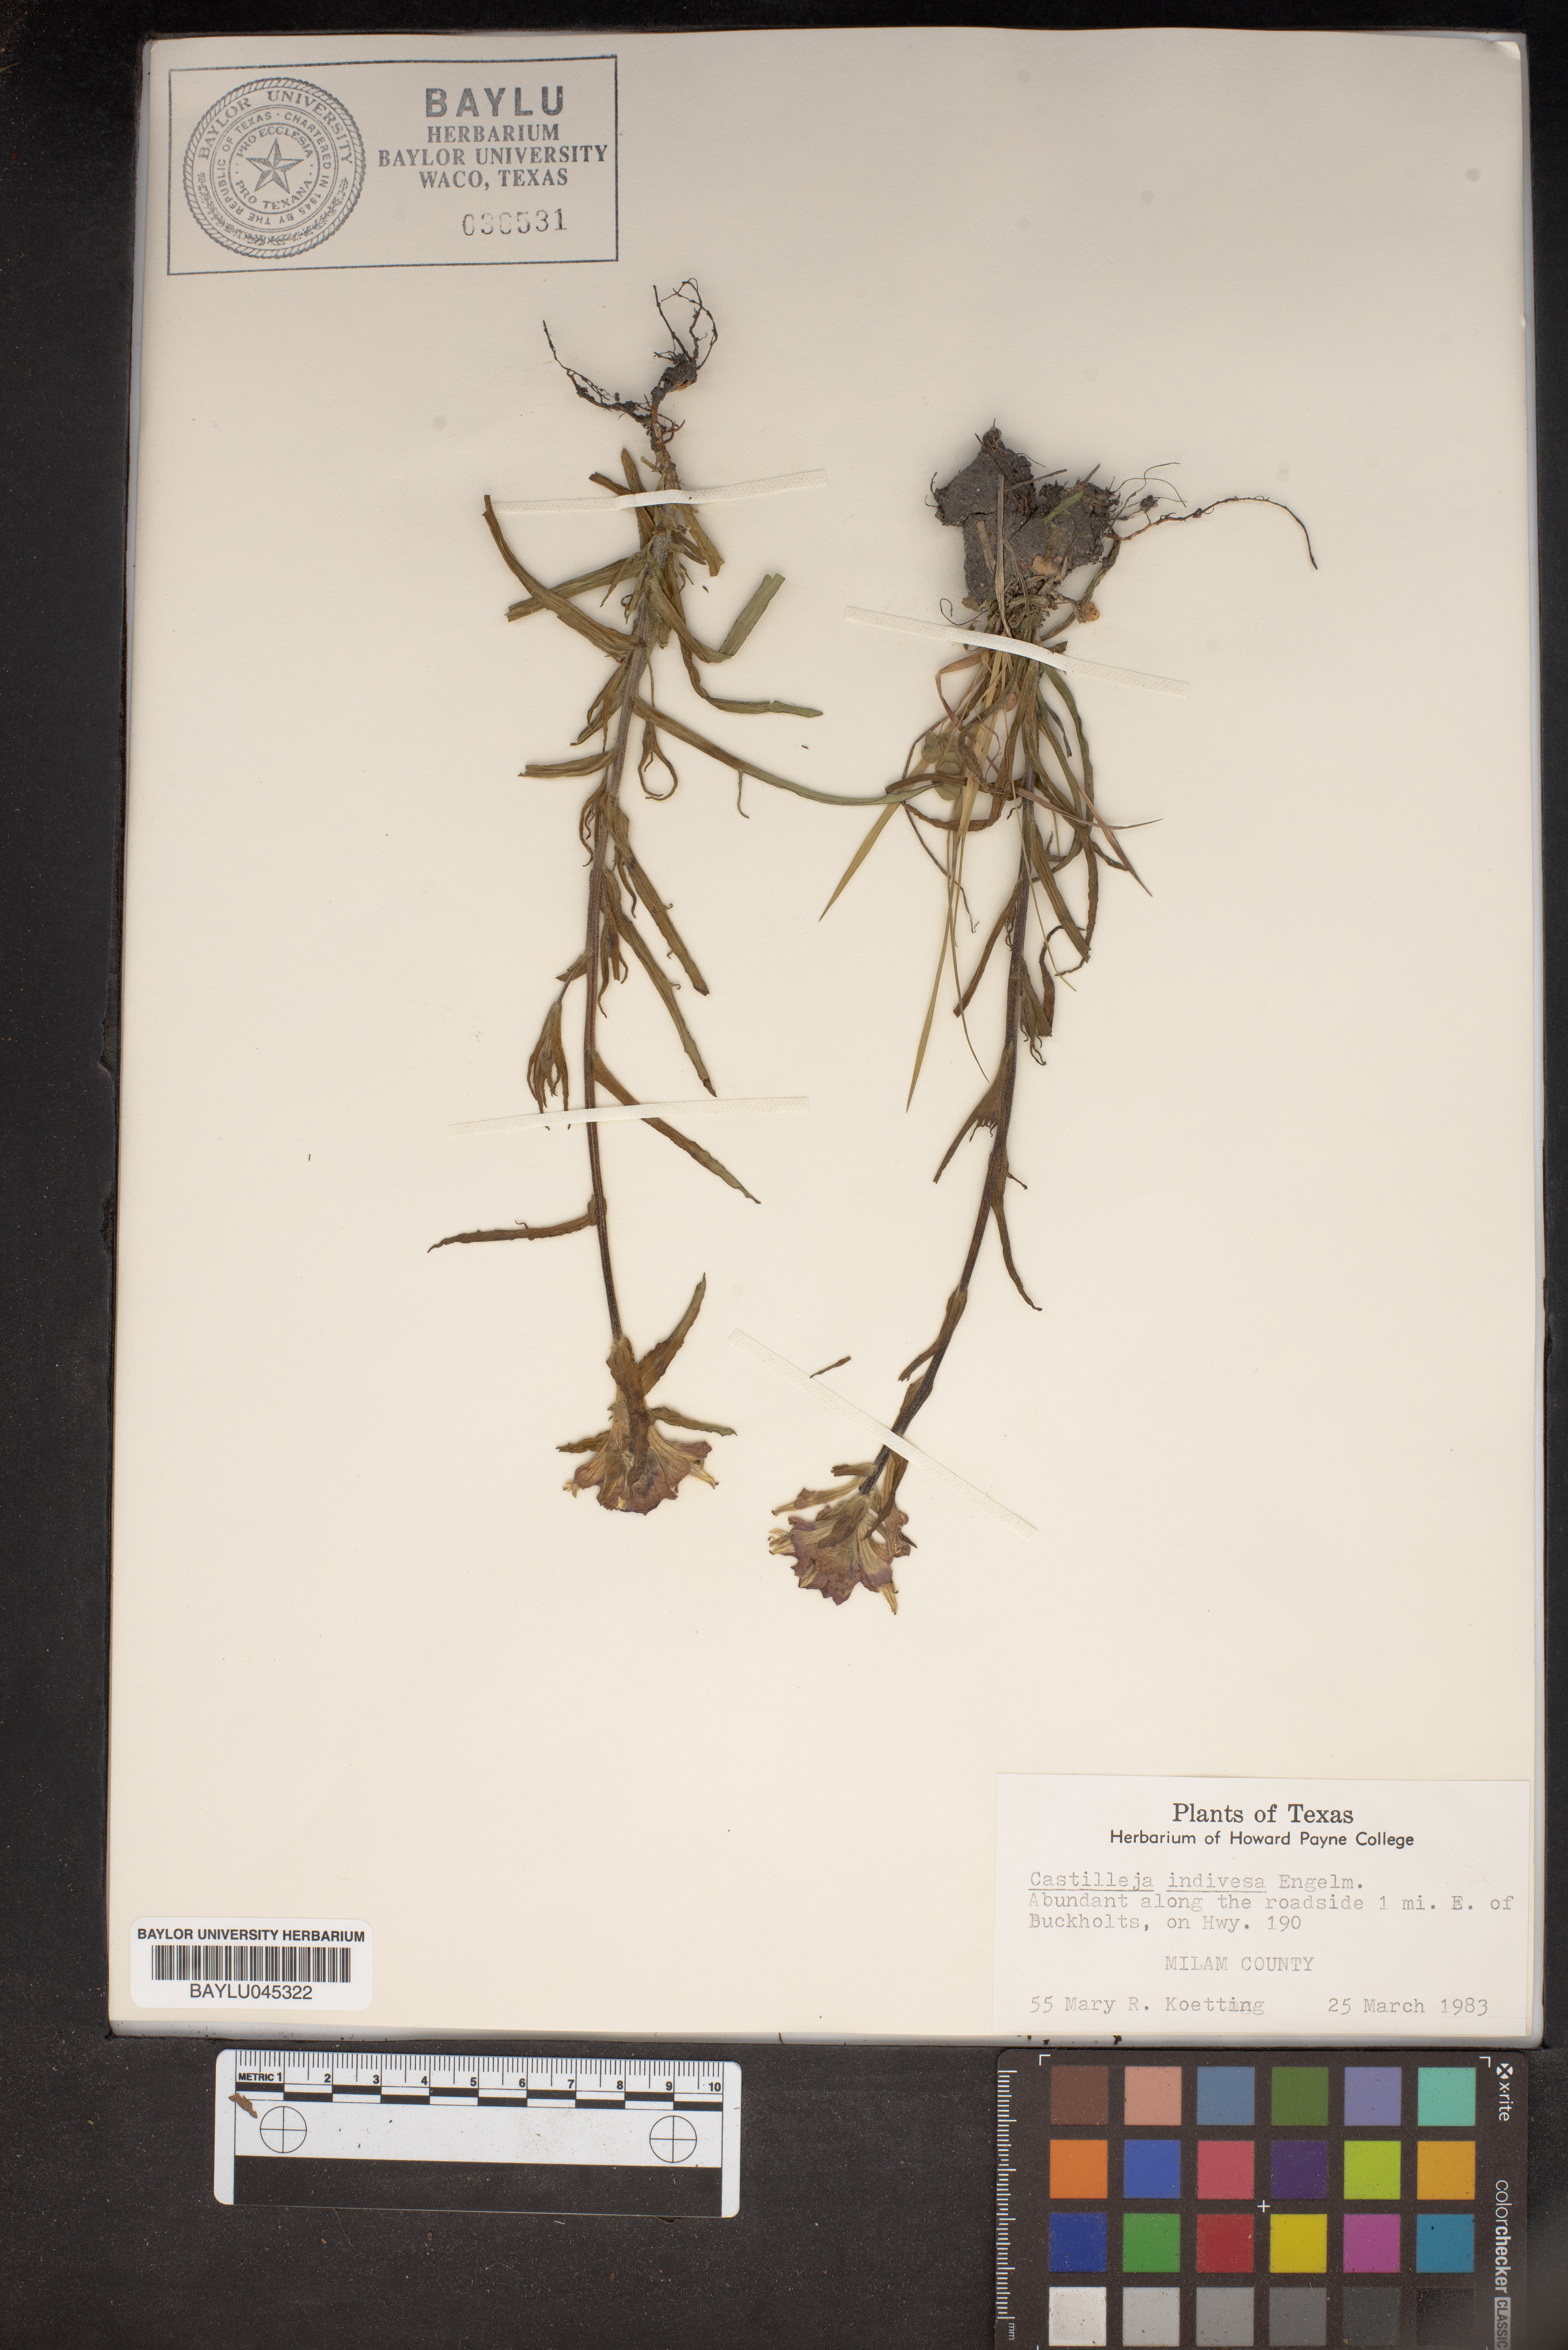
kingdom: Plantae
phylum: Tracheophyta
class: Magnoliopsida
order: Lamiales
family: Orobanchaceae
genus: Castilleja
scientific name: Castilleja indivisa
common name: Texas paintbrush
